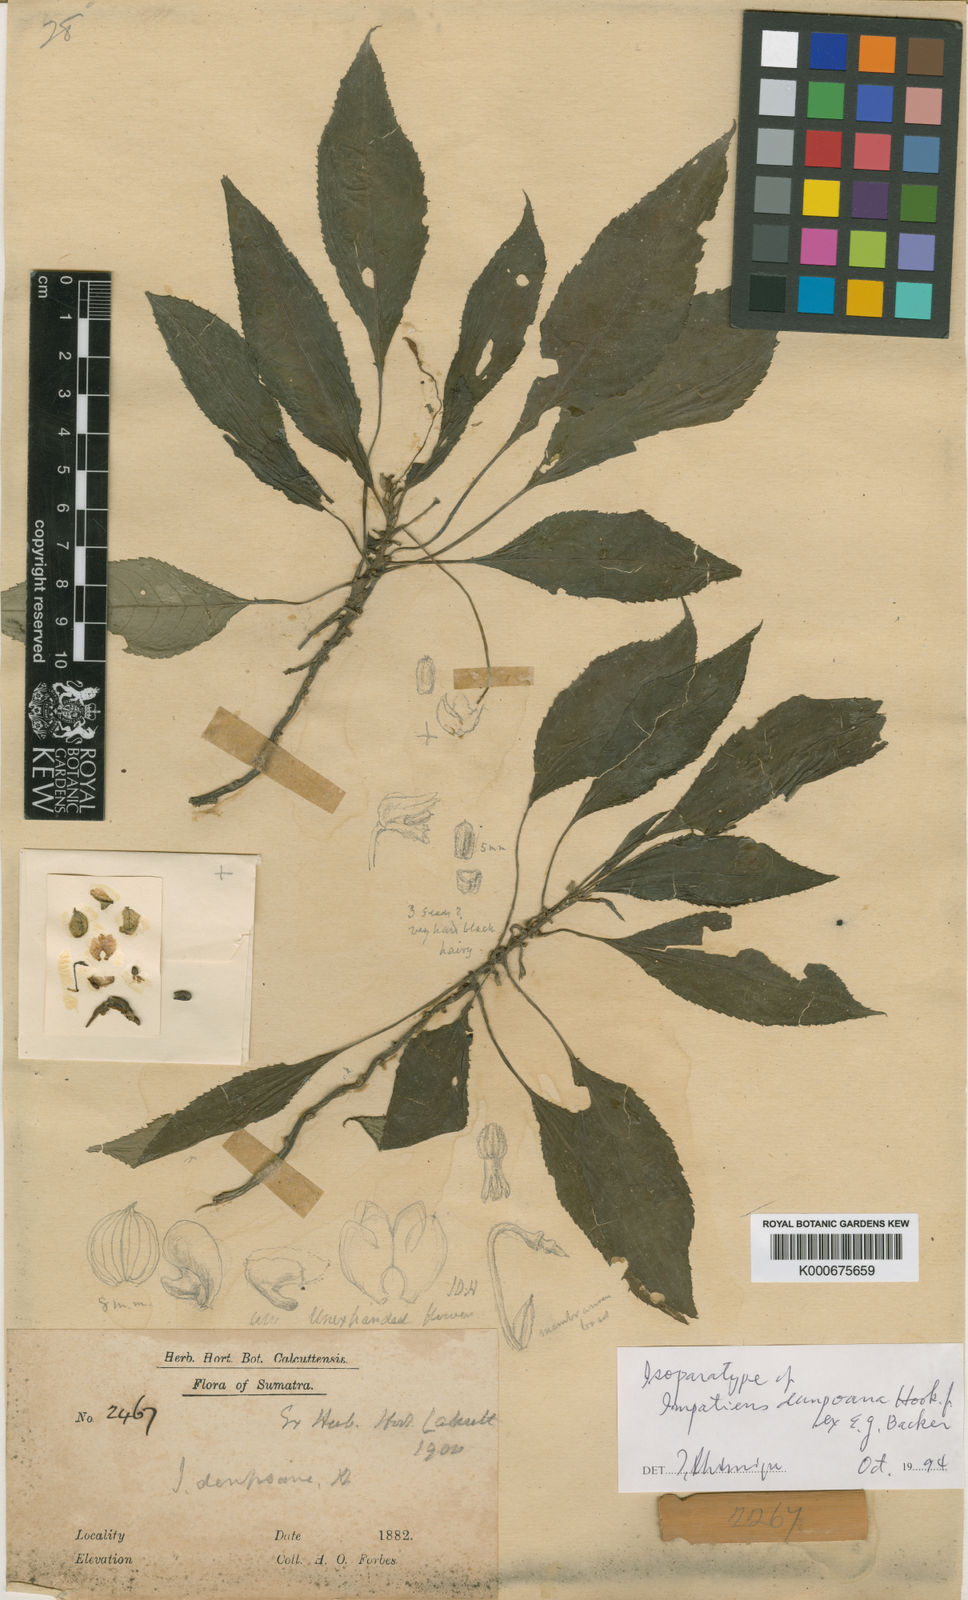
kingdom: Plantae
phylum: Tracheophyta
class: Magnoliopsida
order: Ericales
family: Balsaminaceae
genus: Impatiens
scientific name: Impatiens dempoana
